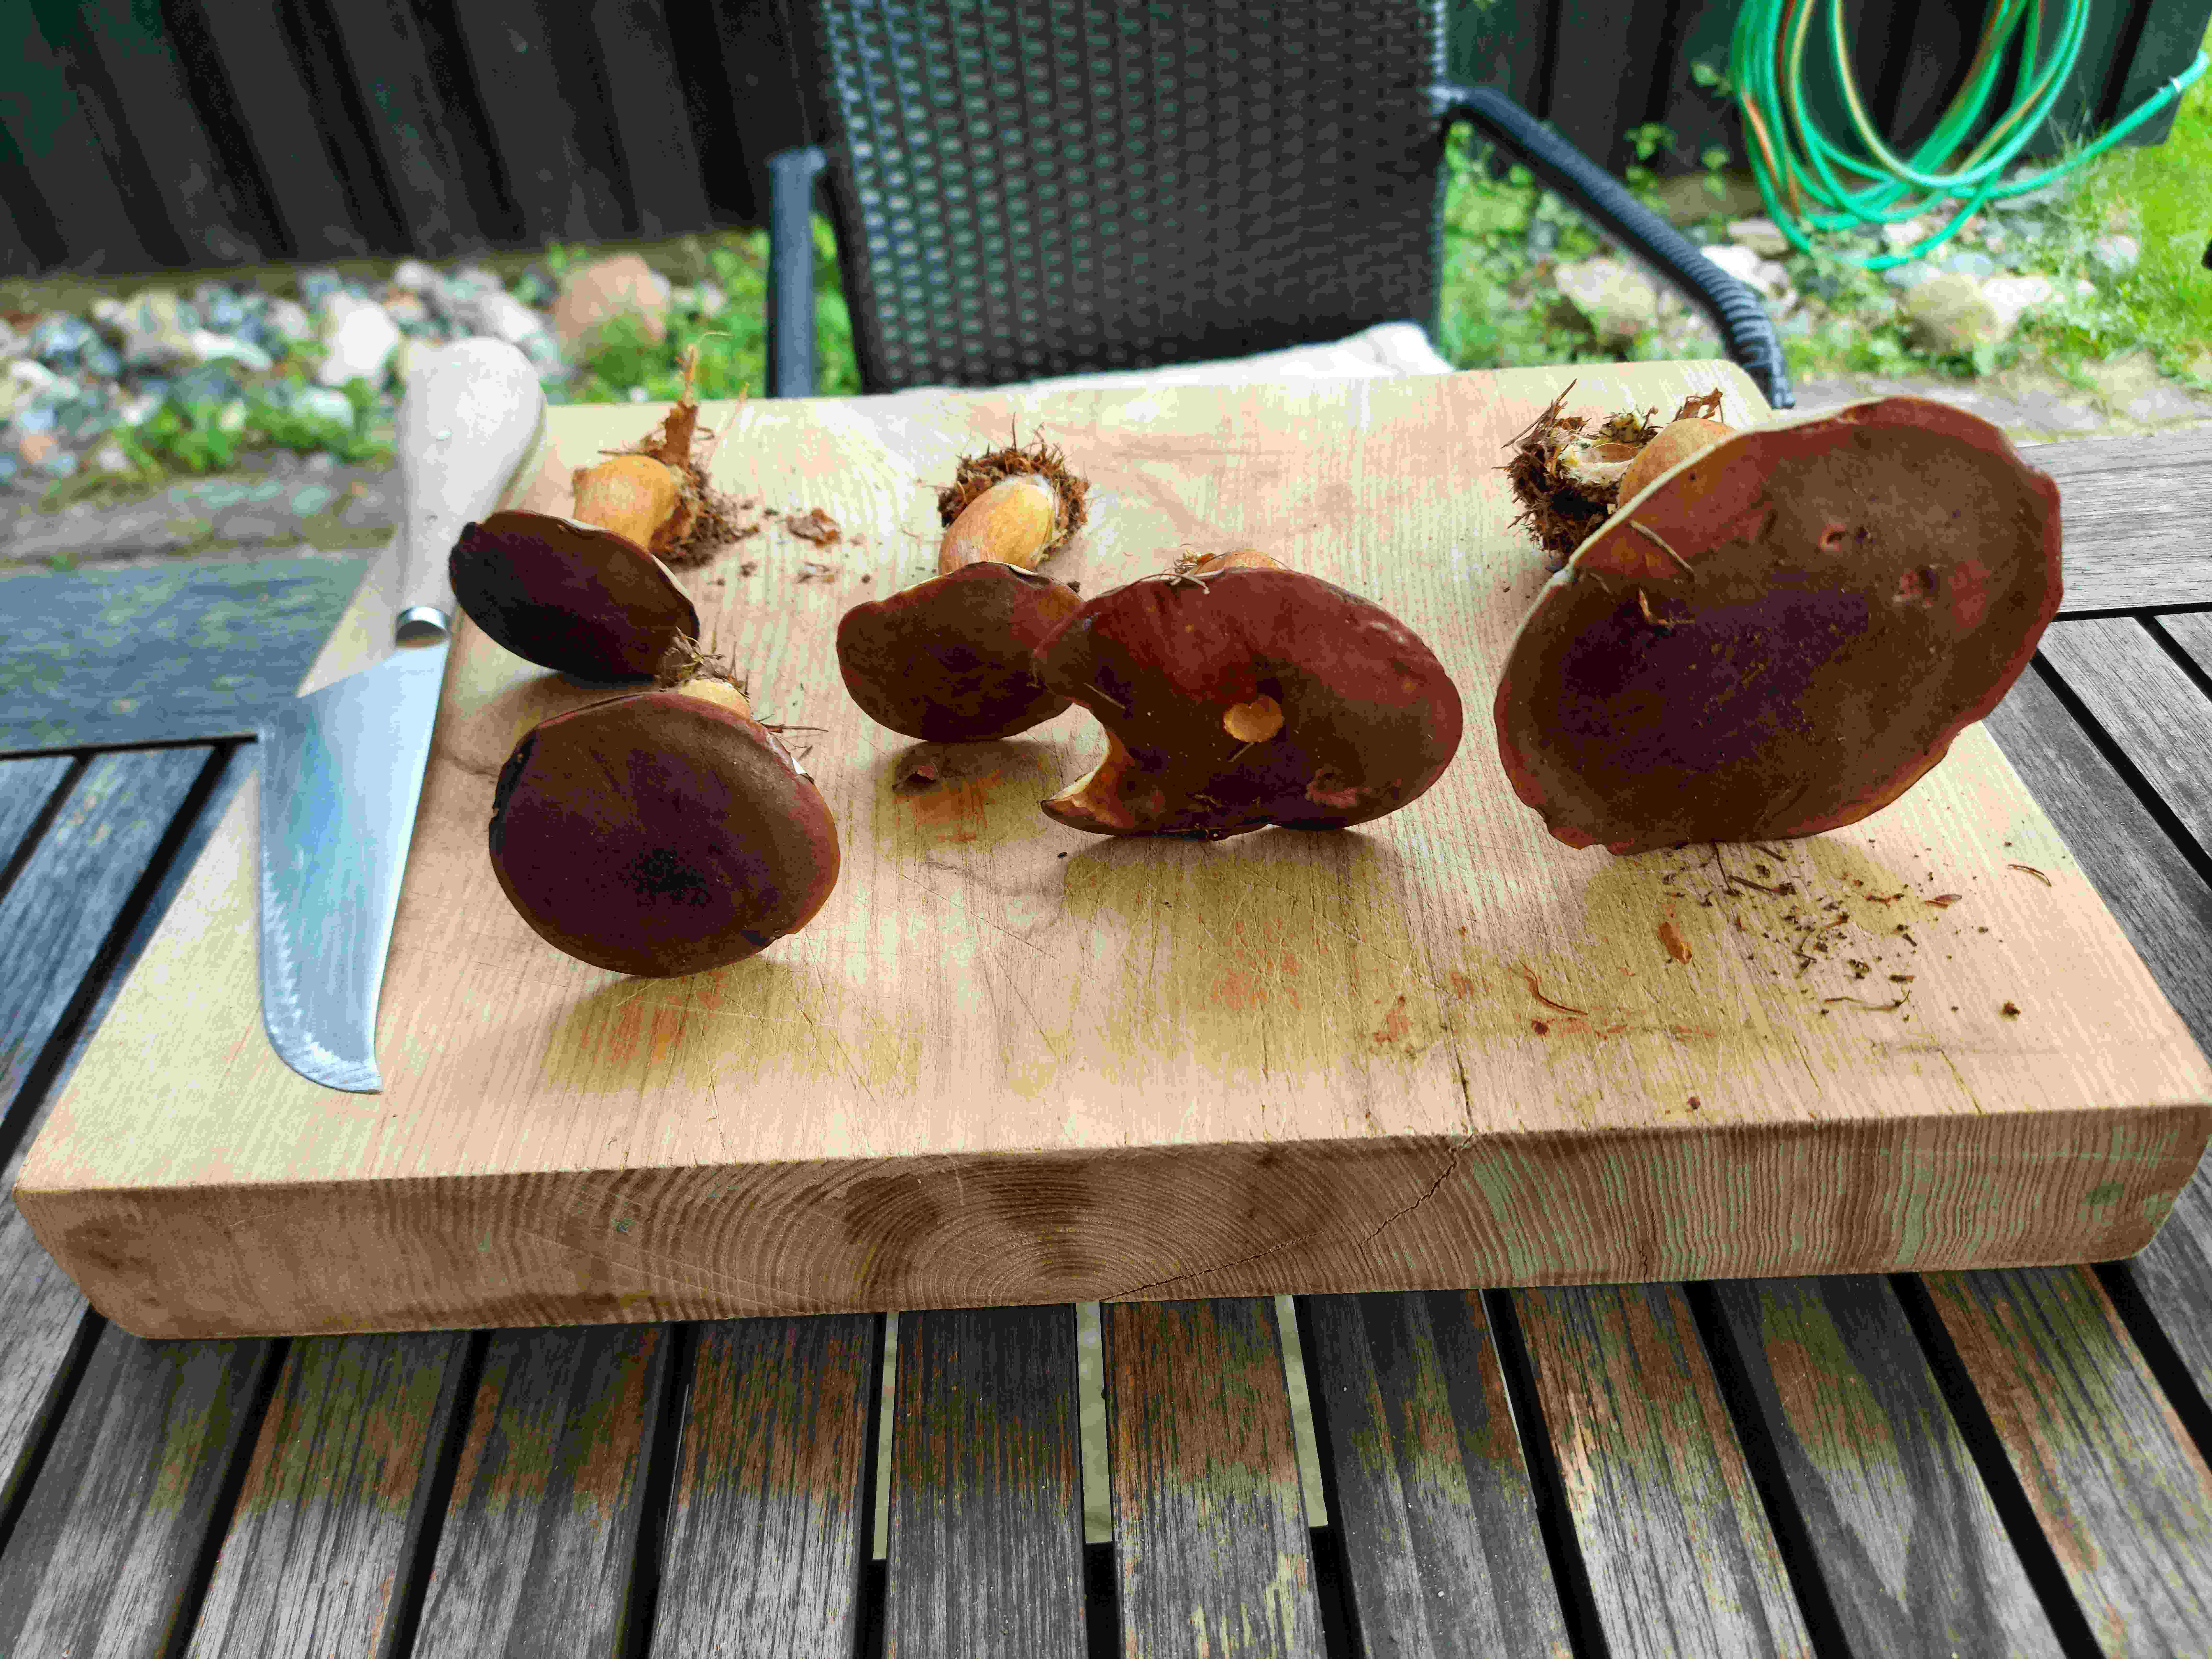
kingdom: Fungi
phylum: Basidiomycota
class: Agaricomycetes
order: Boletales
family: Boletaceae
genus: Imleria
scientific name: Imleria badia
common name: brunstokket rørhat
